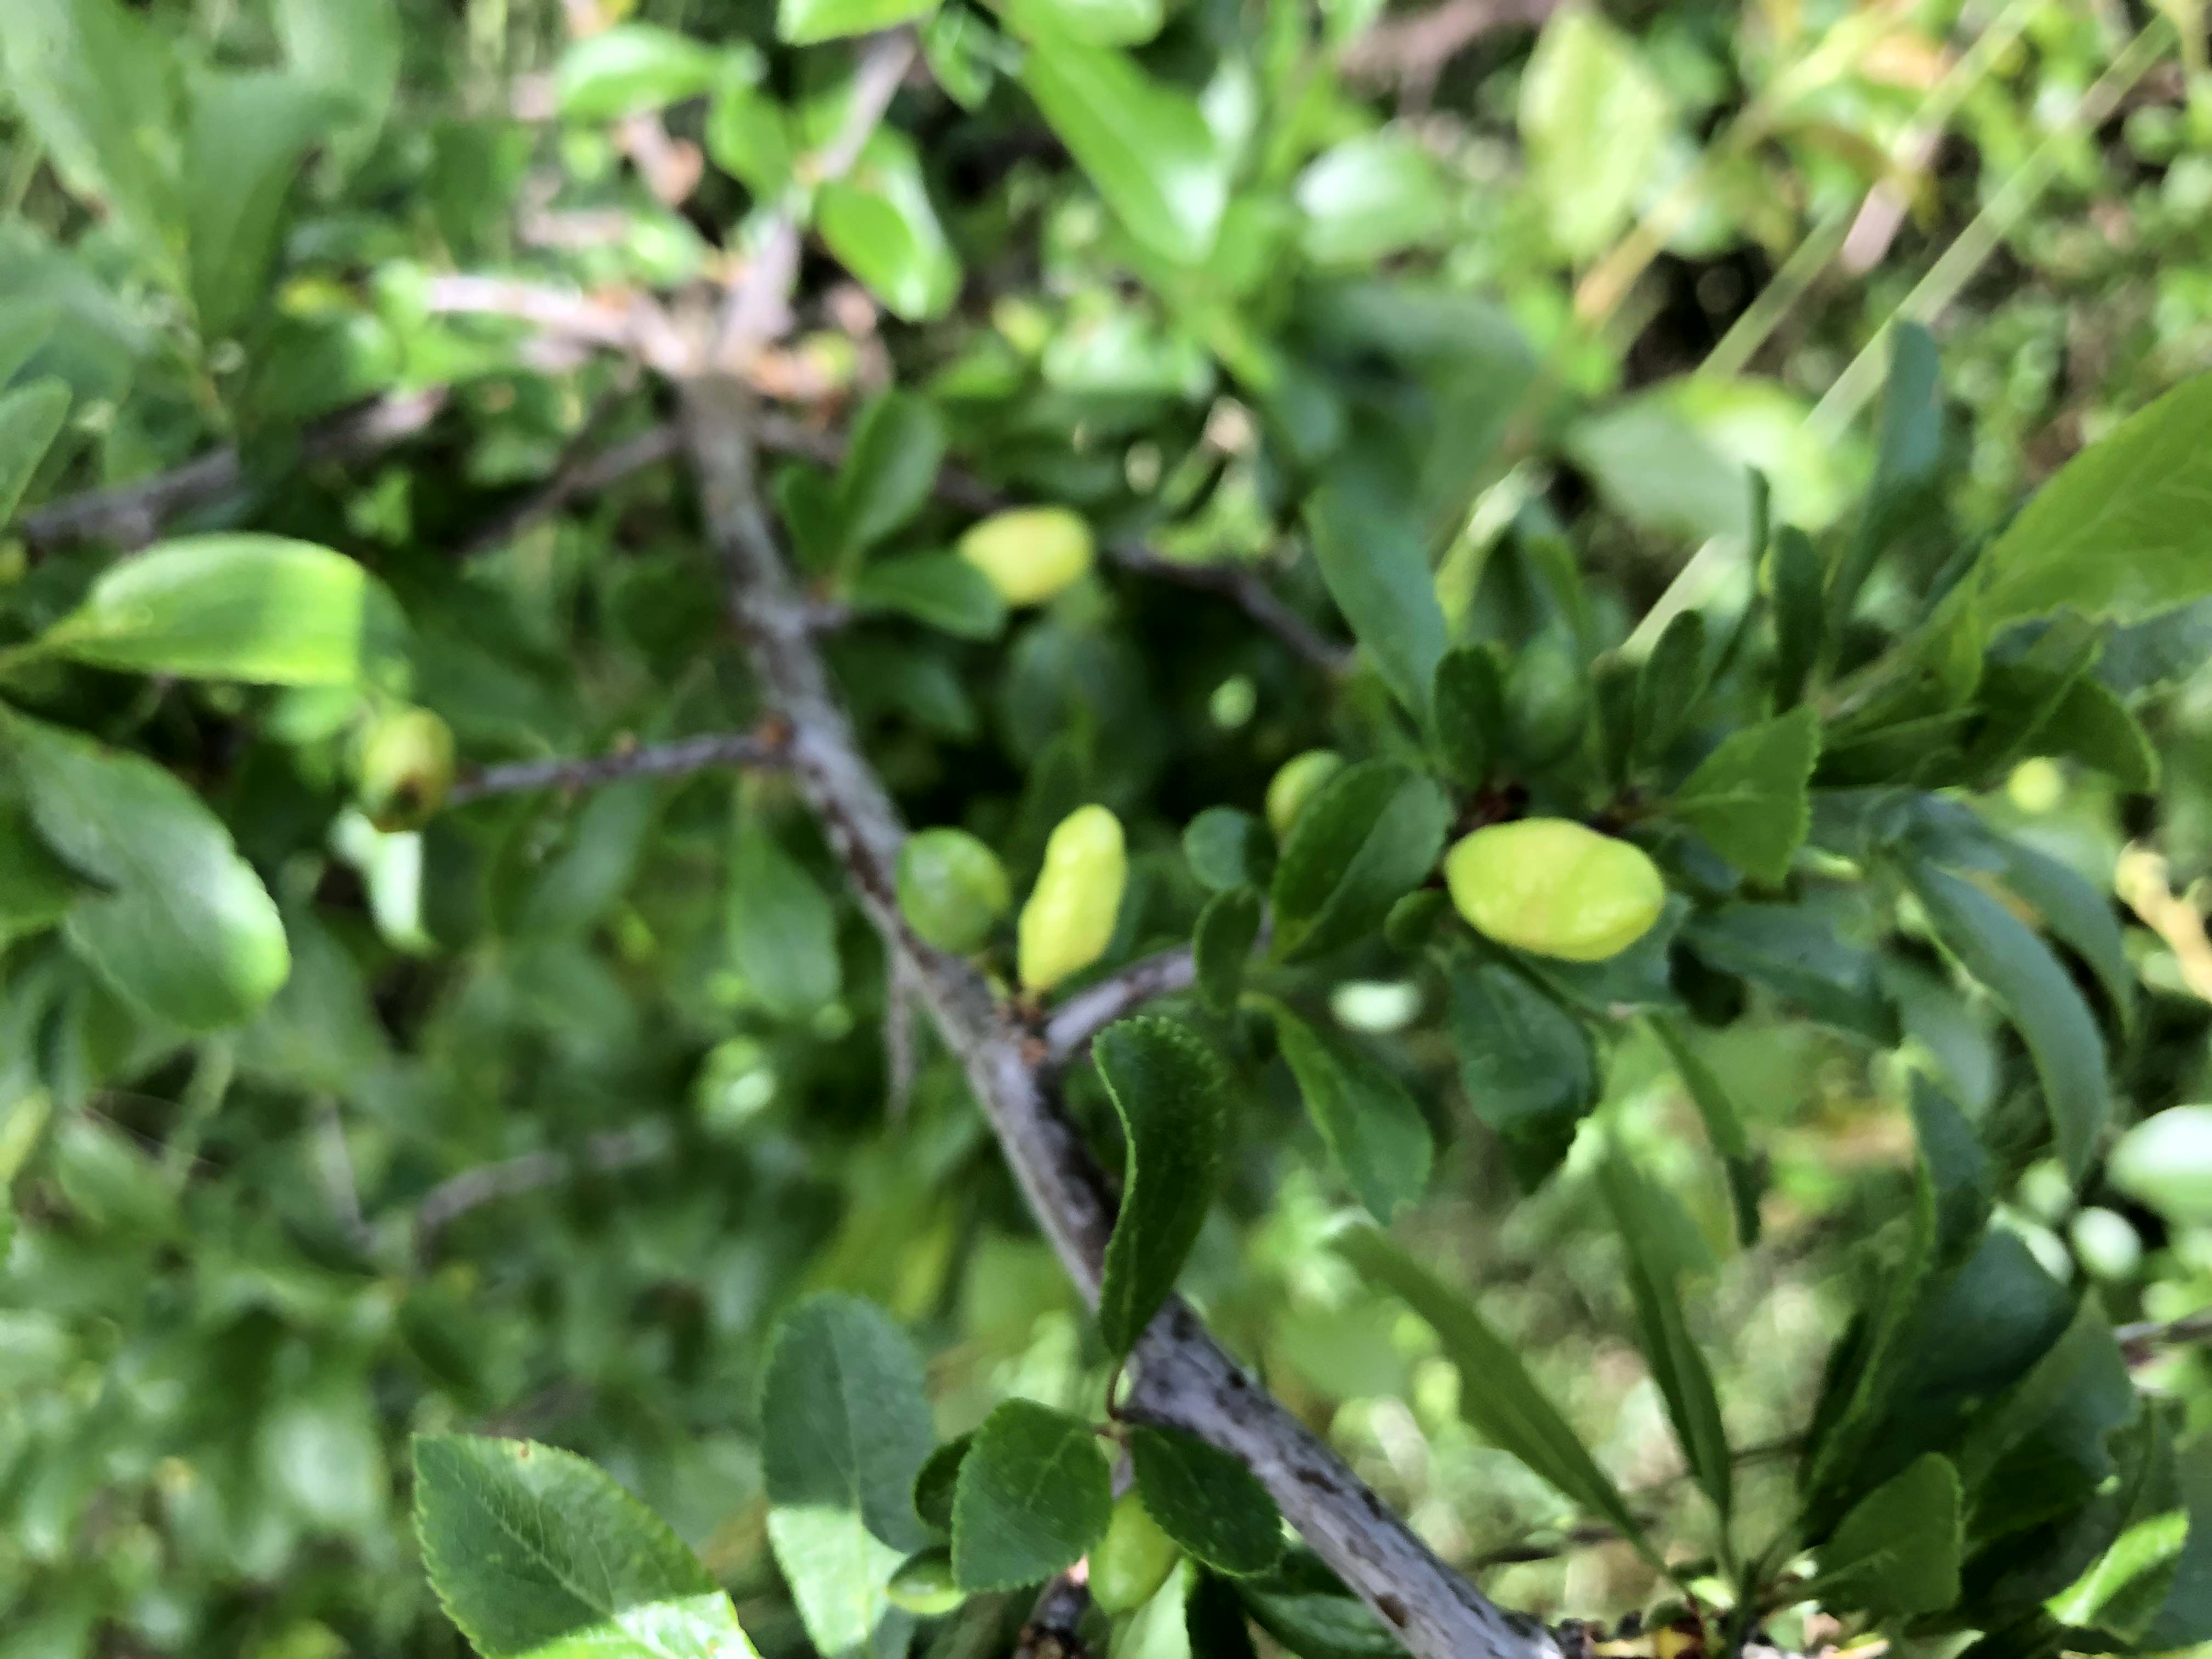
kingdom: Fungi
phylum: Ascomycota
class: Taphrinomycetes
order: Taphrinales
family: Taphrinaceae
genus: Taphrina
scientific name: Taphrina pruni
